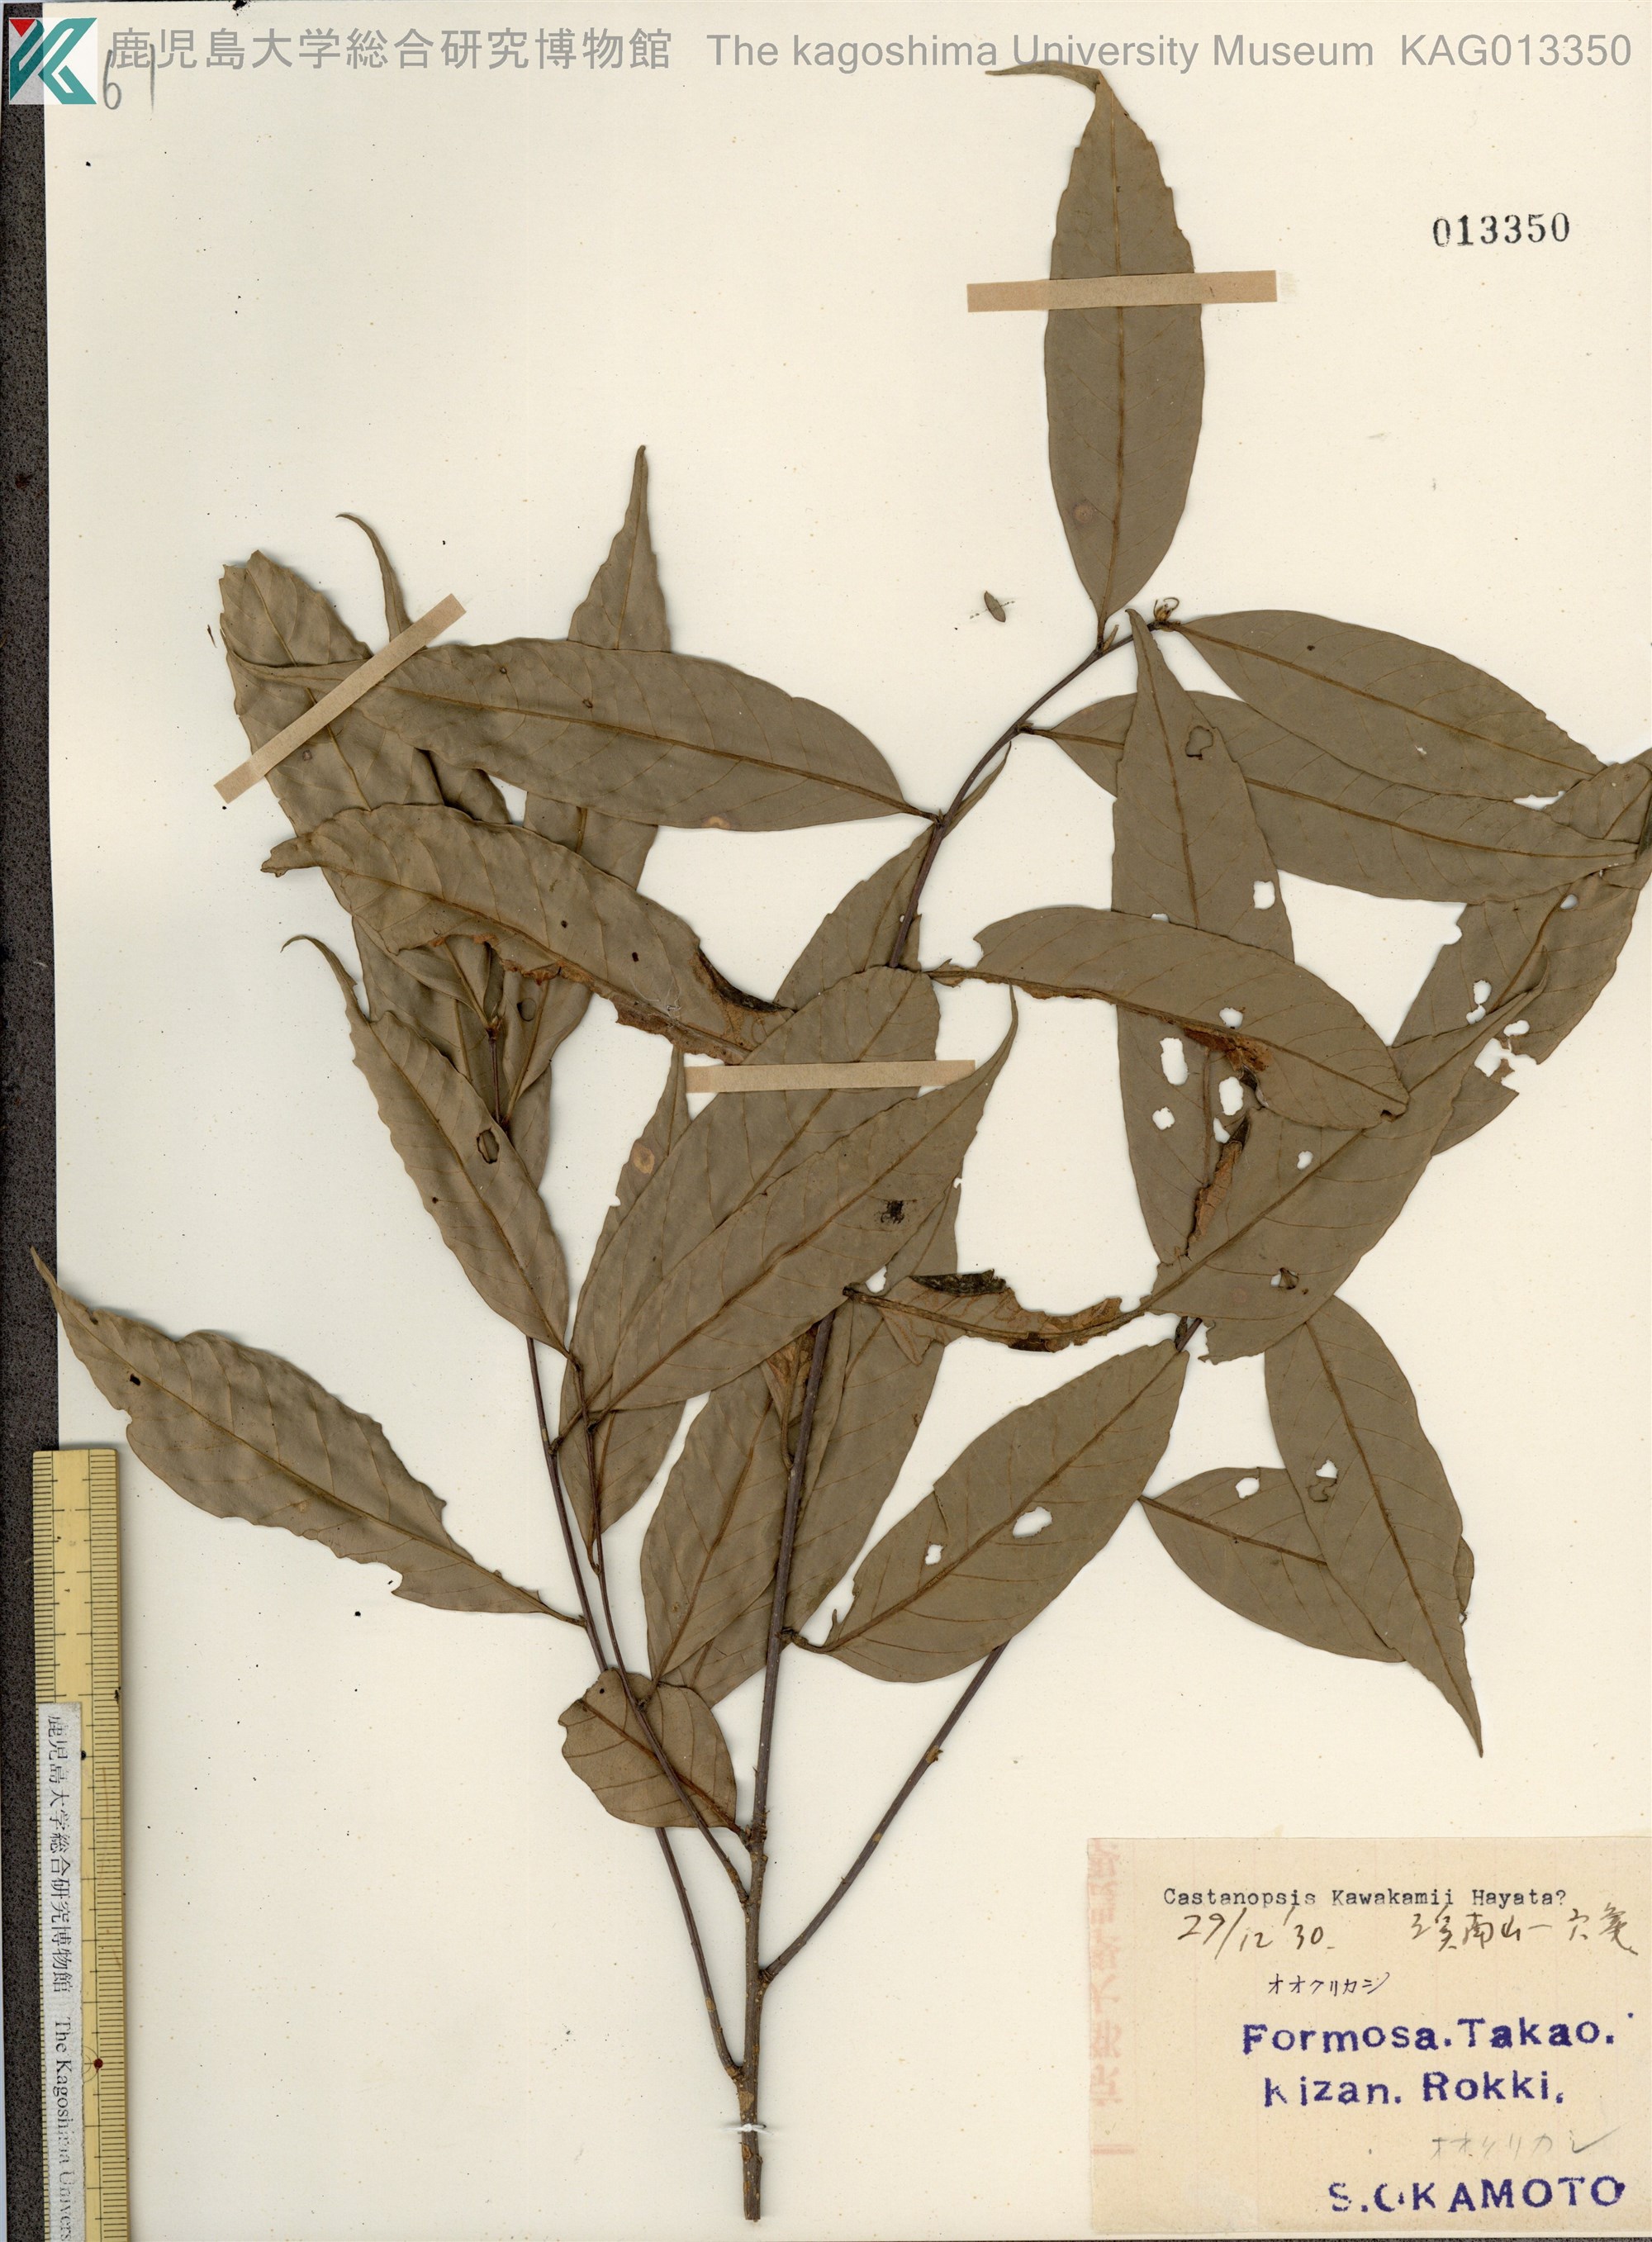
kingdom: Plantae
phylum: Tracheophyta
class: Magnoliopsida
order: Fagales
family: Fagaceae
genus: Castanopsis
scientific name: Castanopsis kawakamii
